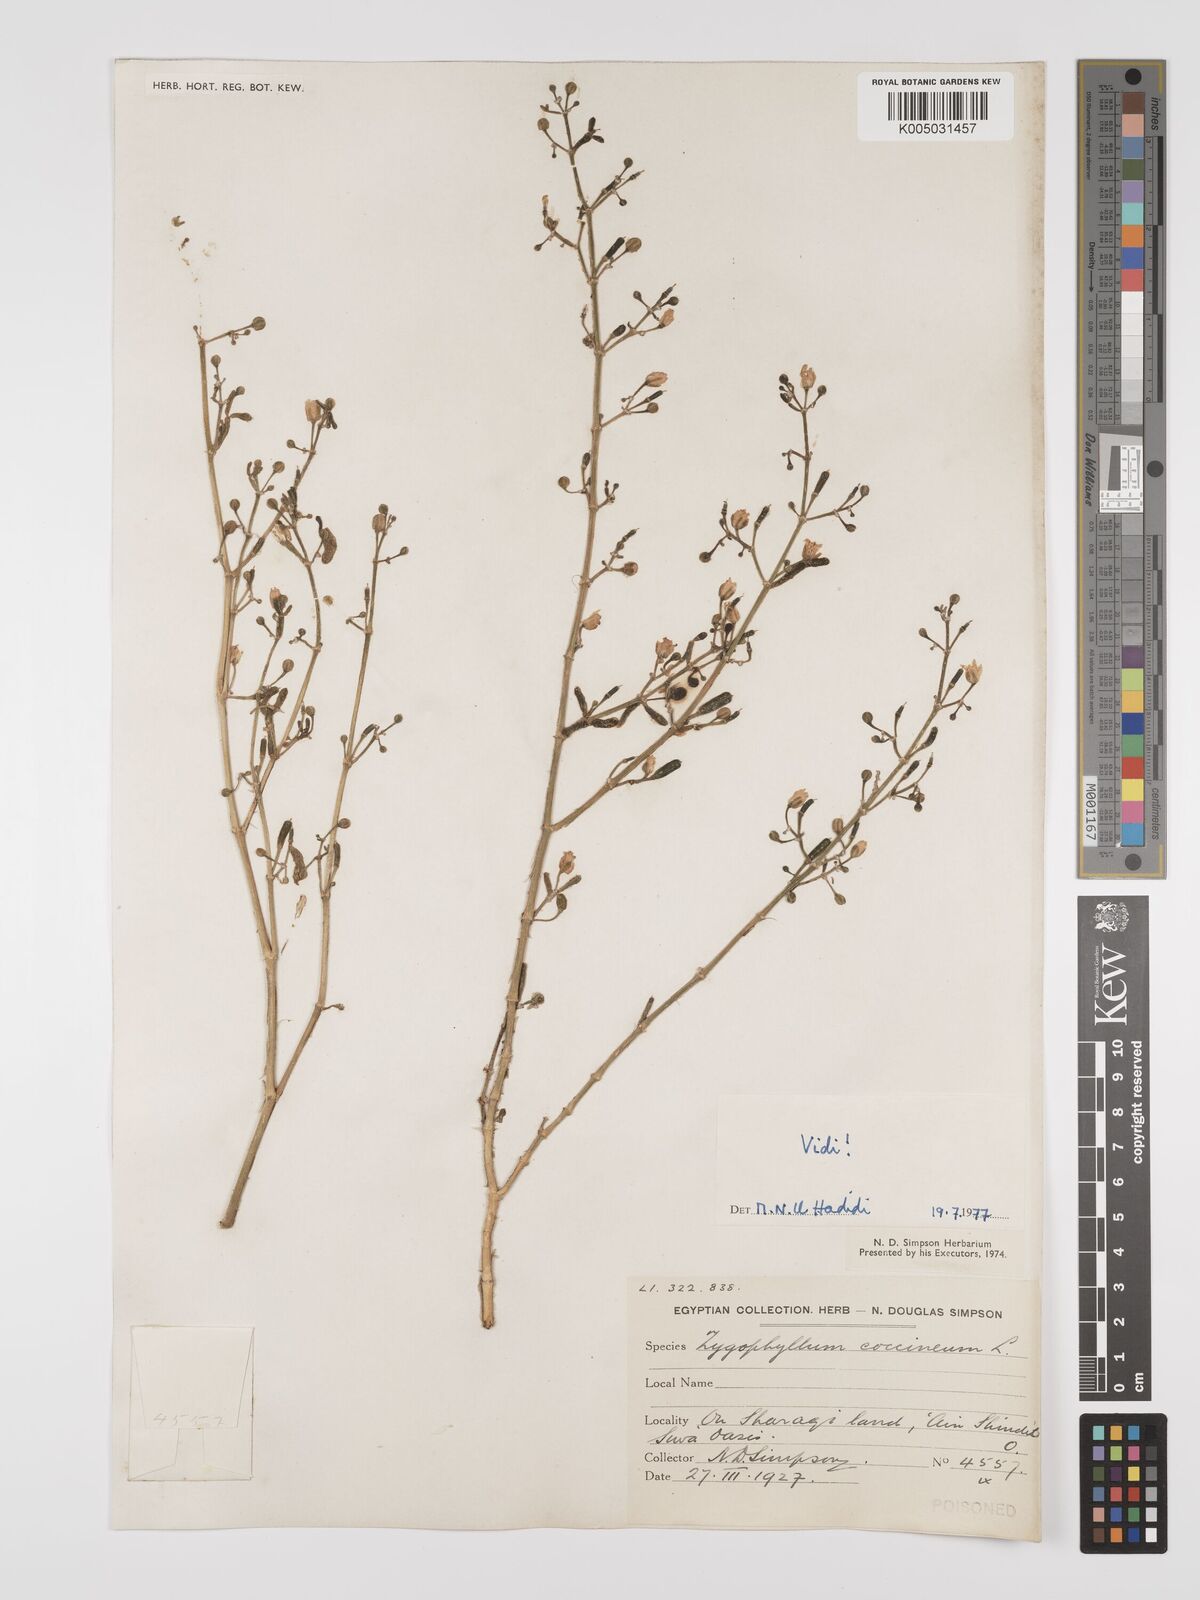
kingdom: Plantae
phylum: Tracheophyta
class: Magnoliopsida
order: Zygophyllales
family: Zygophyllaceae
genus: Zygophyllum
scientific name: Zygophyllum
